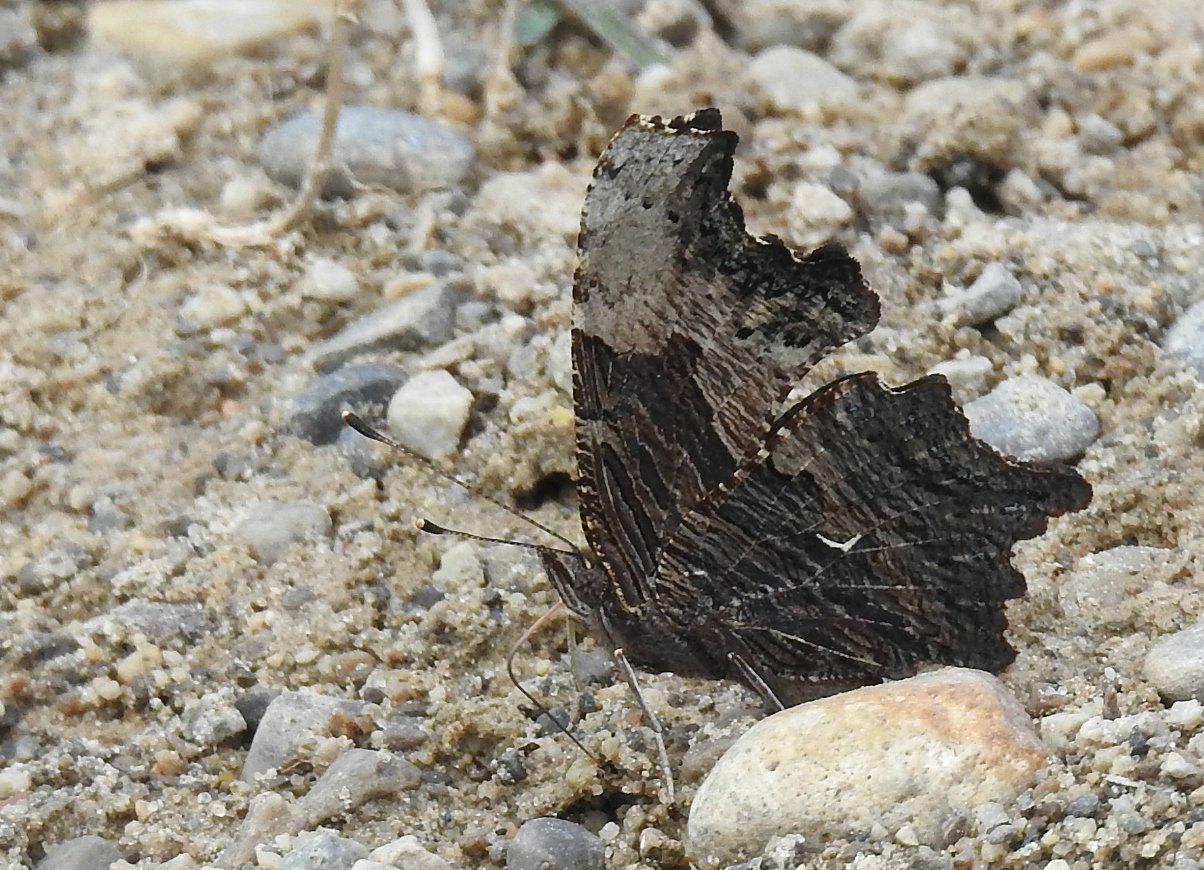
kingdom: Animalia
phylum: Arthropoda
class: Insecta
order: Lepidoptera
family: Nymphalidae
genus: Polygonia
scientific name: Polygonia progne
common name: Gray Comma
